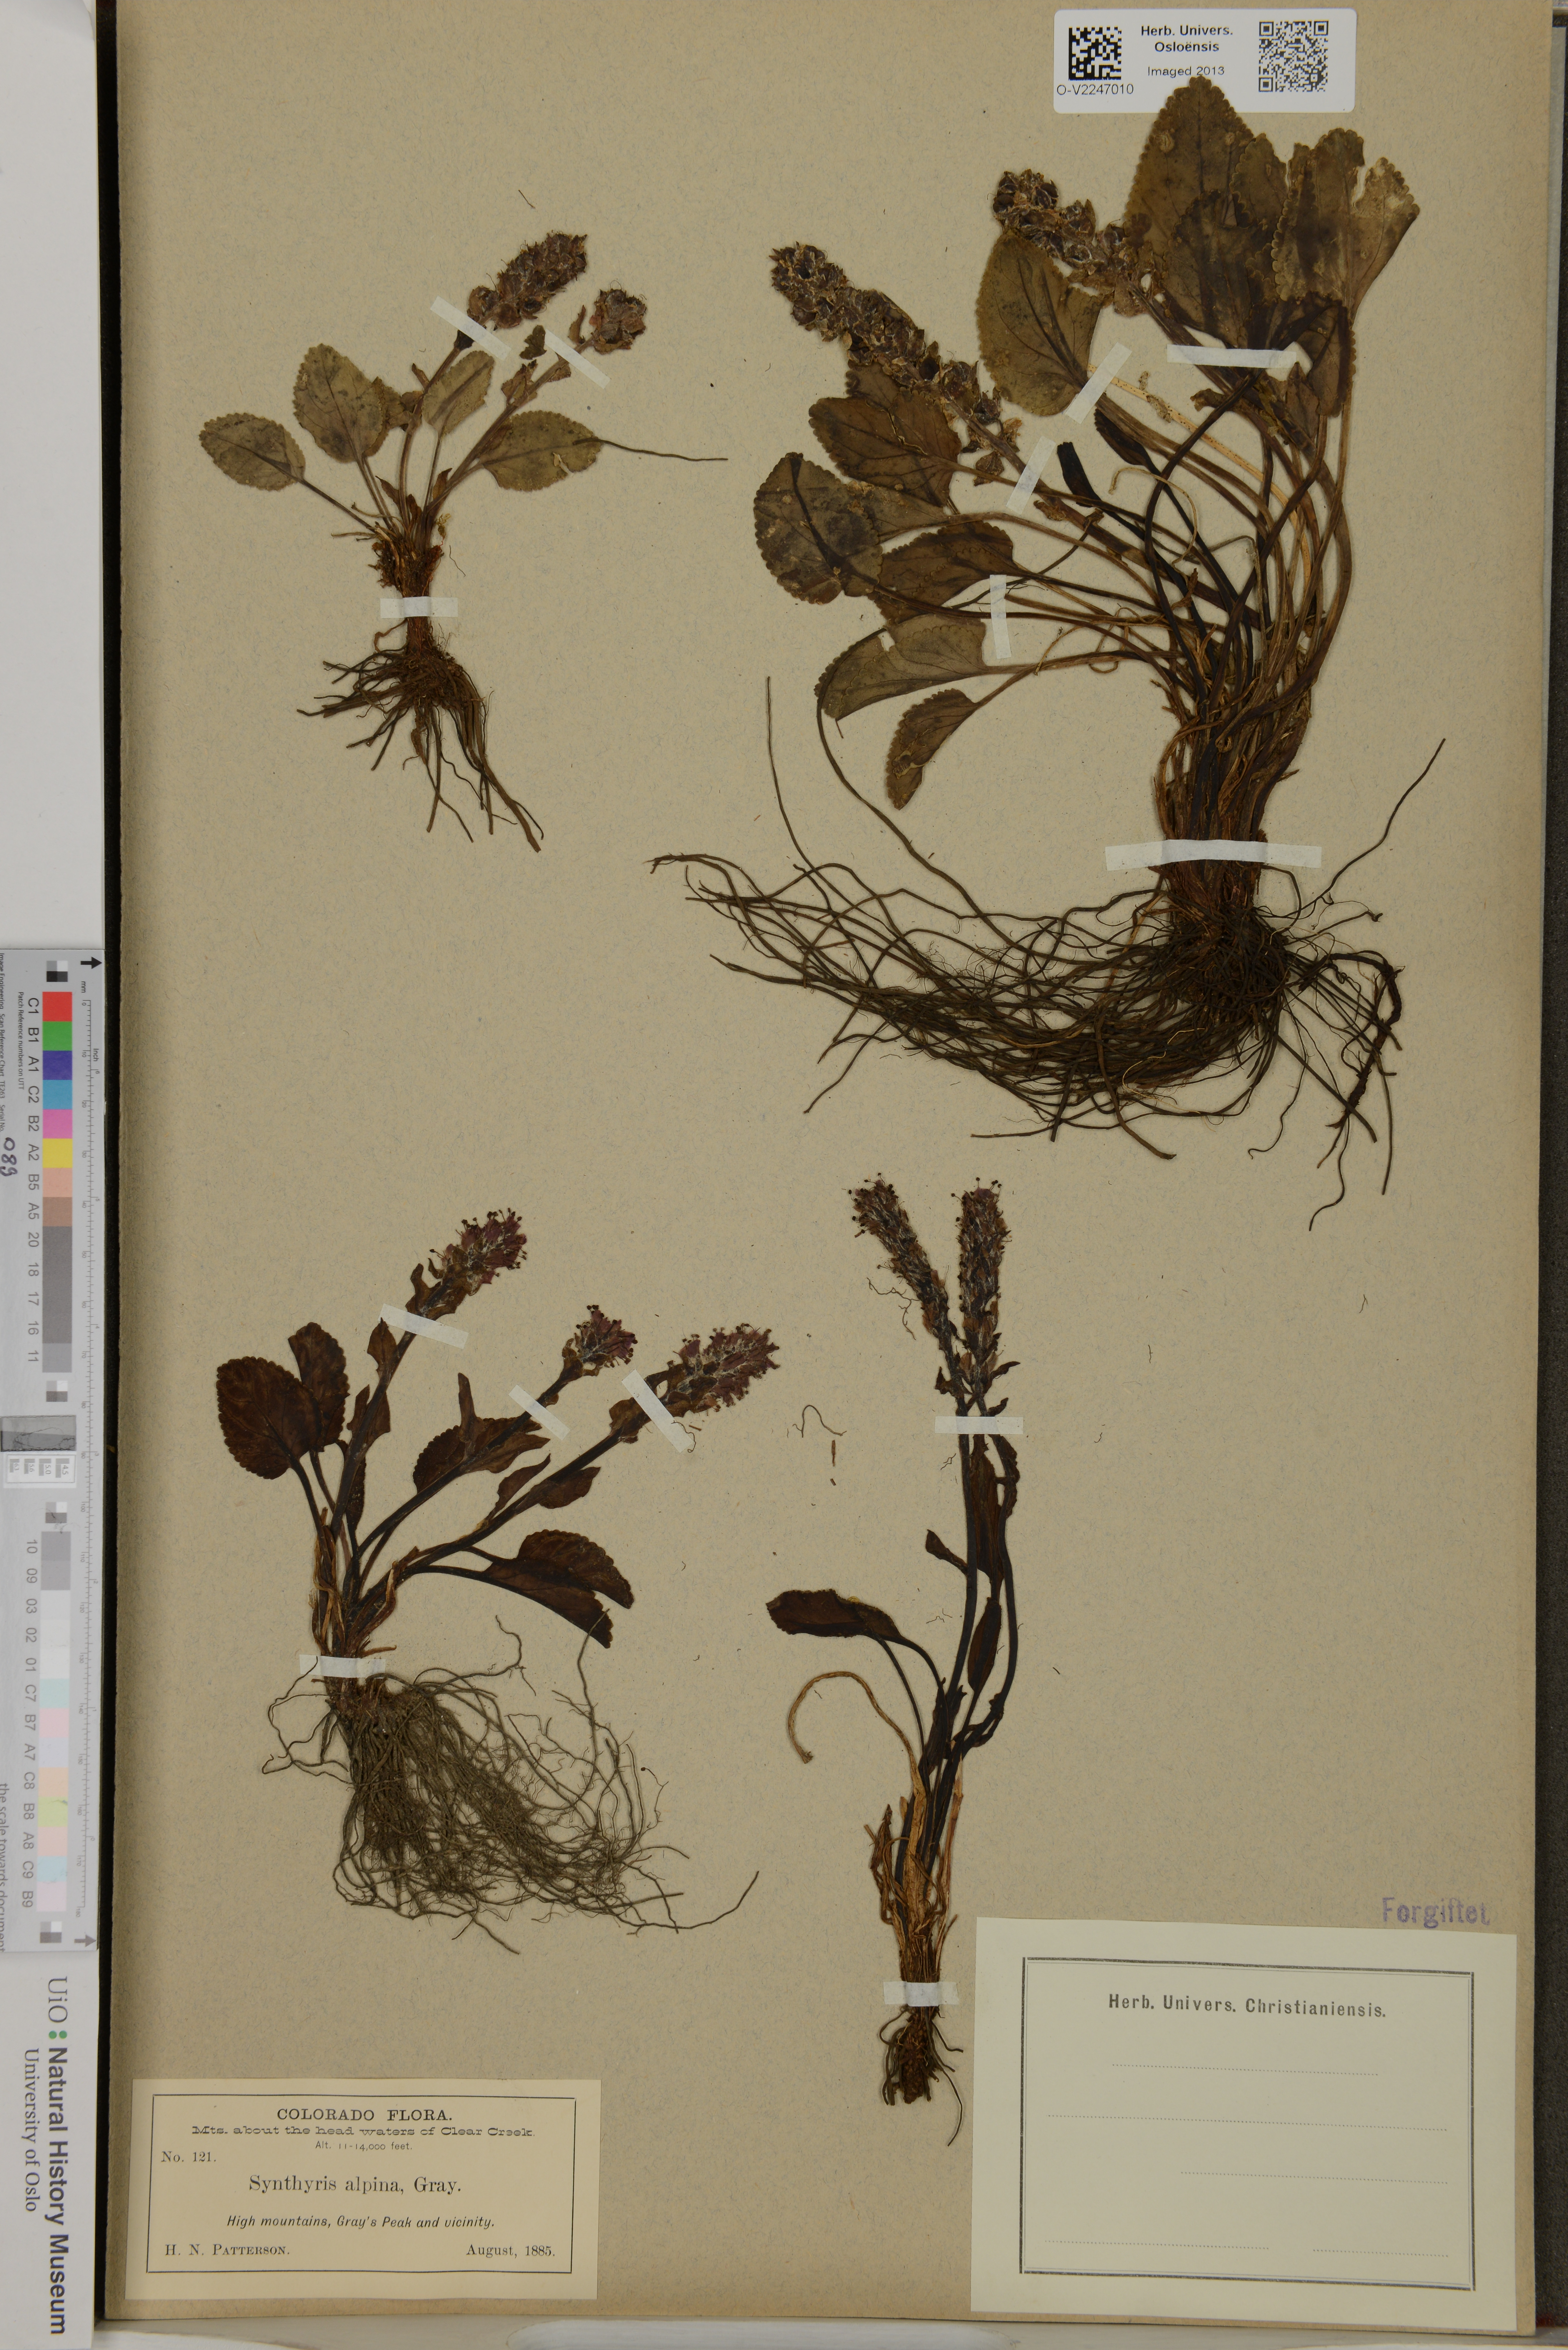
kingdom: Plantae
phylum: Tracheophyta
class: Magnoliopsida
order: Lamiales
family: Plantaginaceae
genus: Synthyris
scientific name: Synthyris alpina
